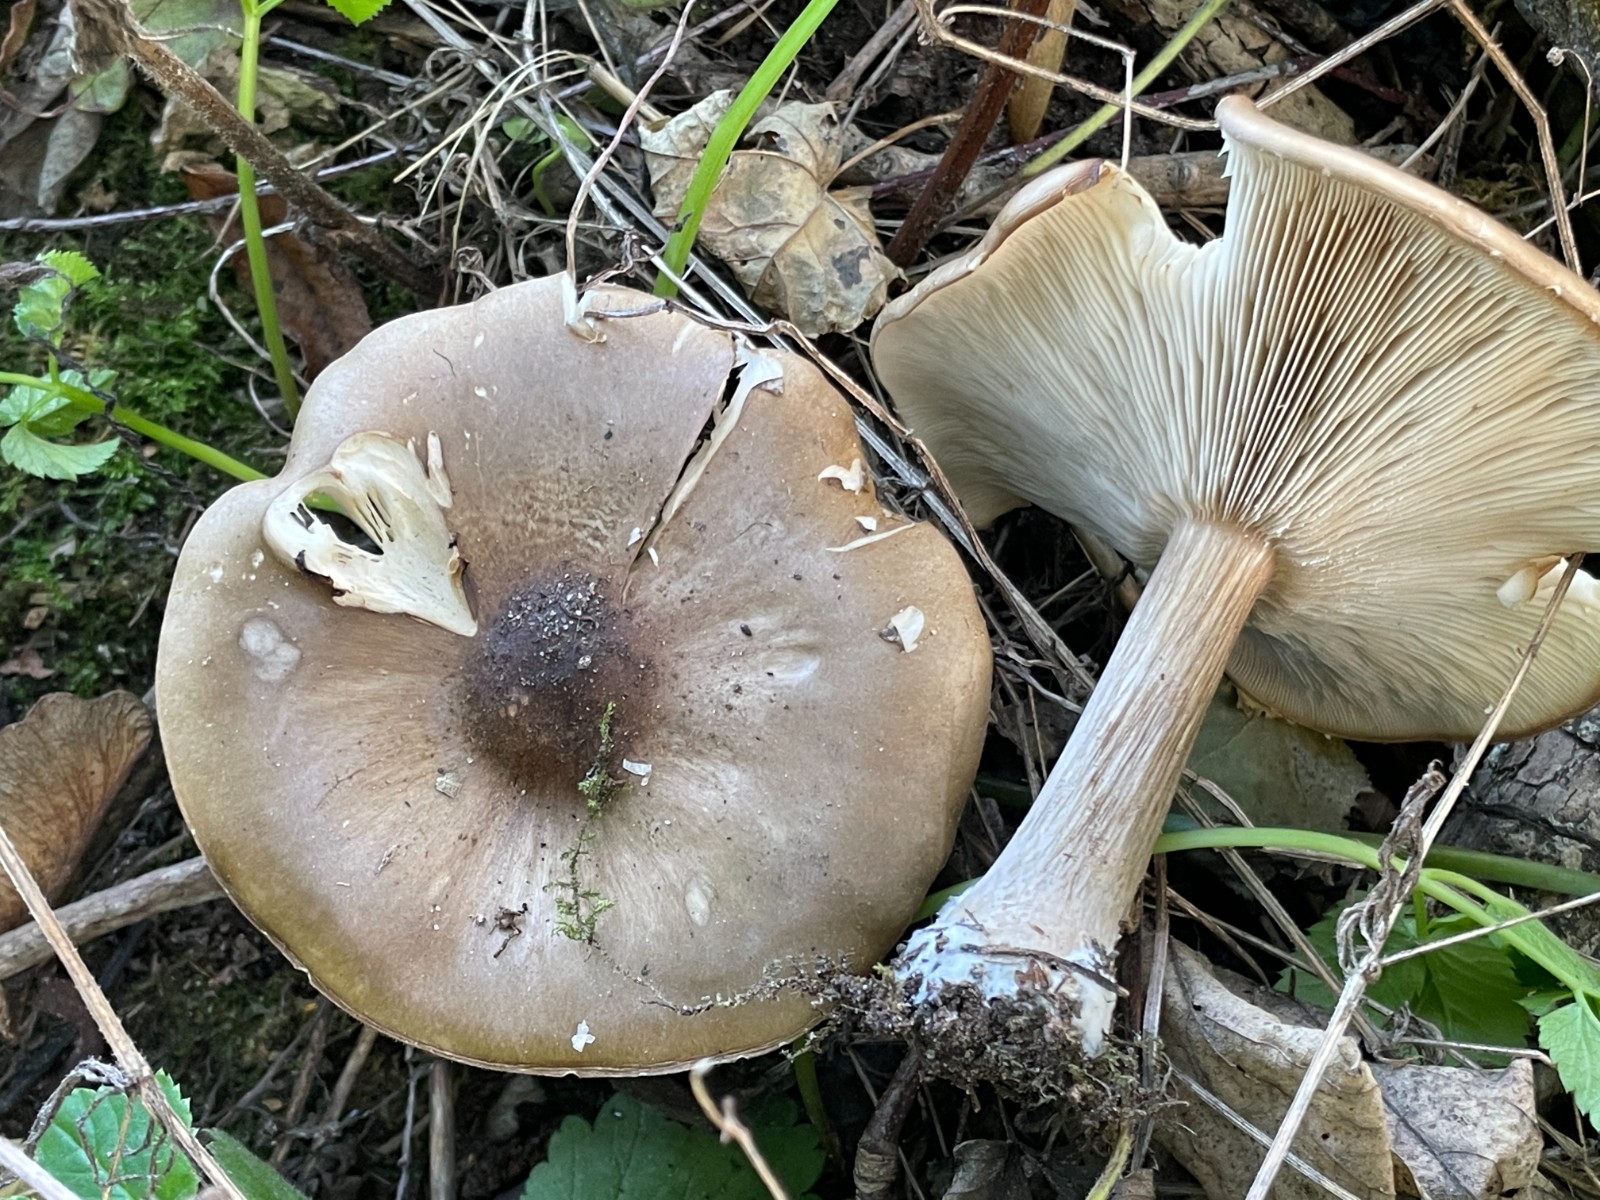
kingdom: Fungi
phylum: Basidiomycota
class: Agaricomycetes
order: Agaricales
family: Tricholomataceae
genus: Melanoleuca
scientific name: Melanoleuca grammopodia
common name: stribestokket munkehat
